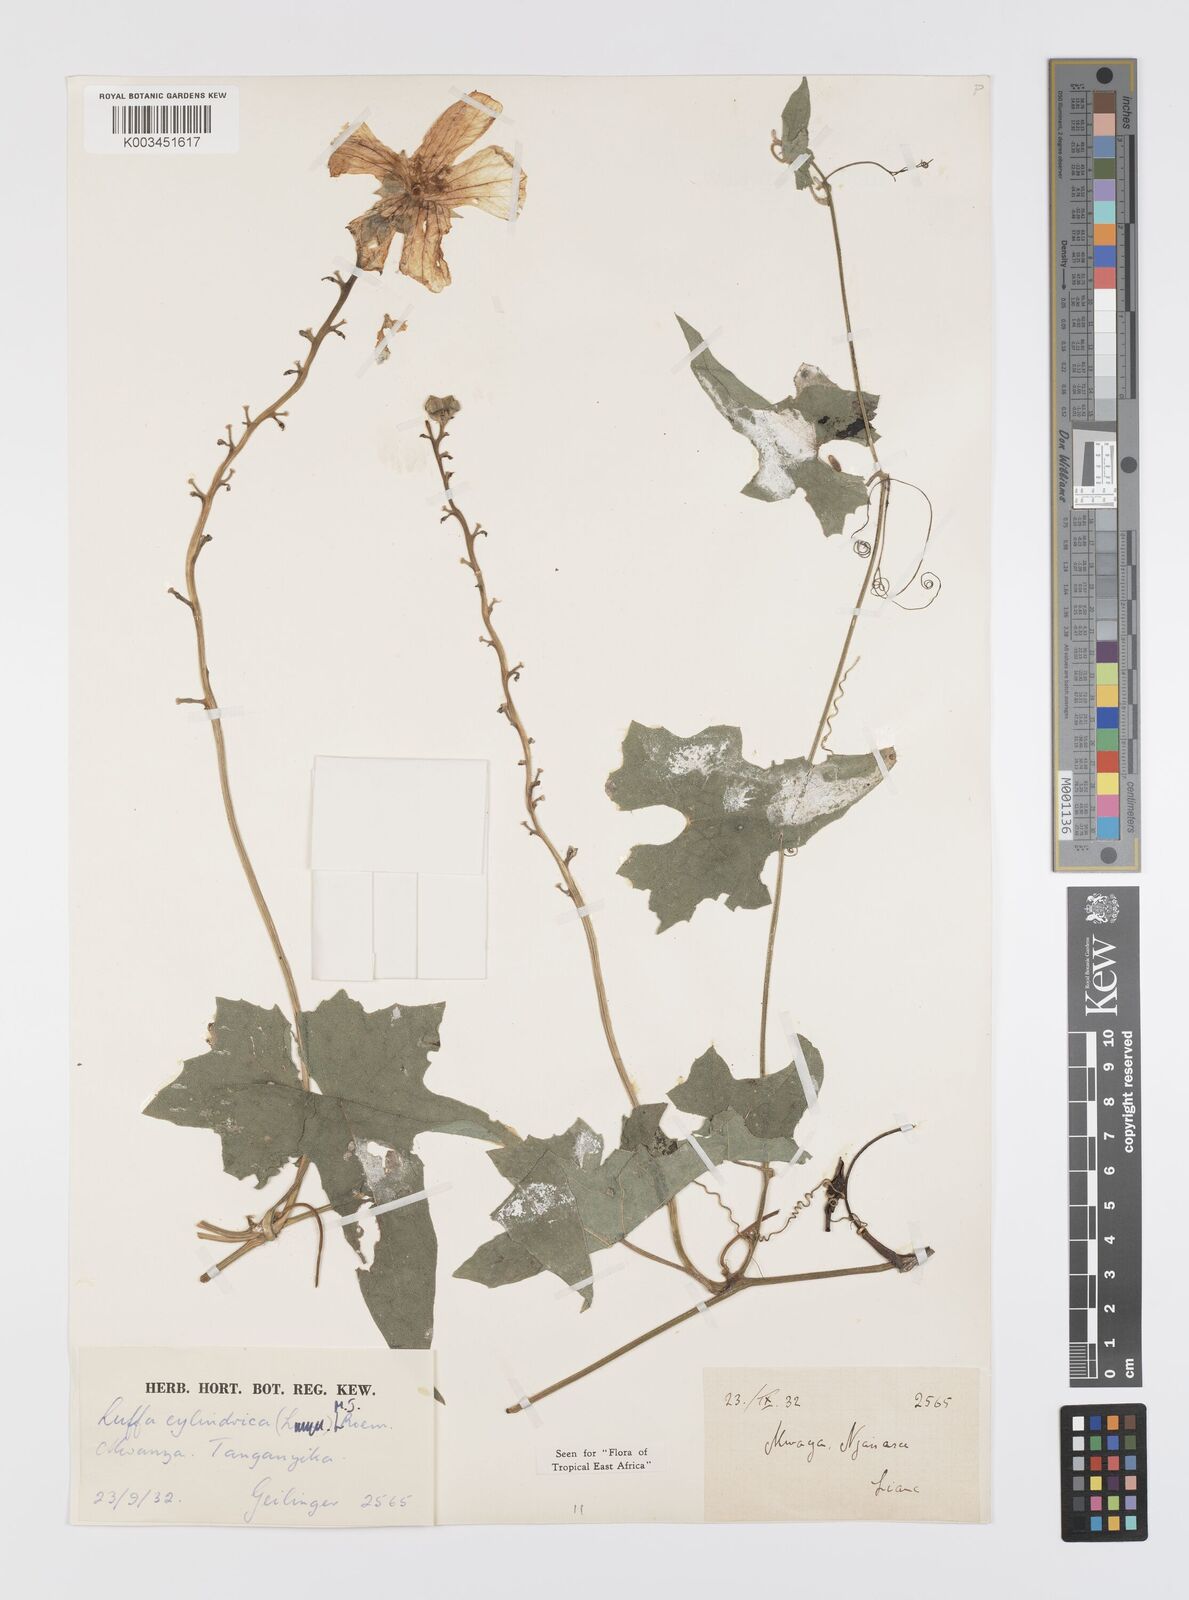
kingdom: Plantae
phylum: Tracheophyta
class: Magnoliopsida
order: Cucurbitales
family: Cucurbitaceae
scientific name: Cucurbitaceae
